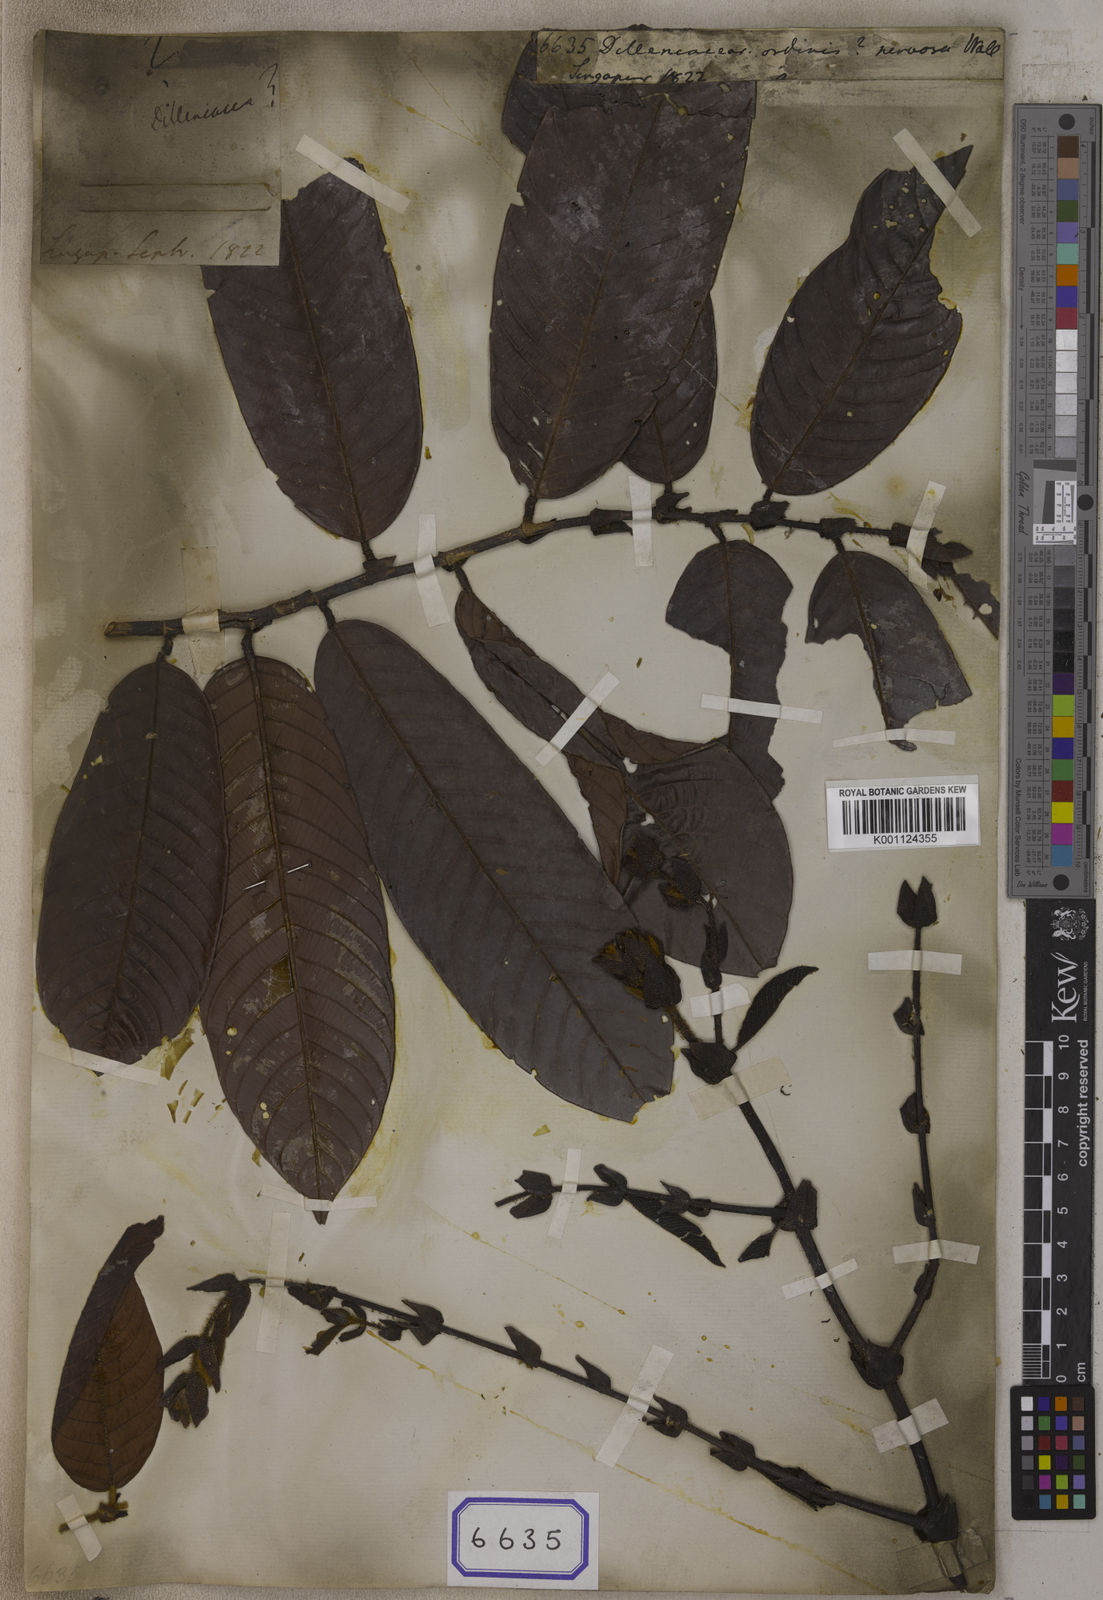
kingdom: Plantae
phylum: Tracheophyta
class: Magnoliopsida
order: Dilleniales
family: Dilleniaceae
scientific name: Dilleniaceae
